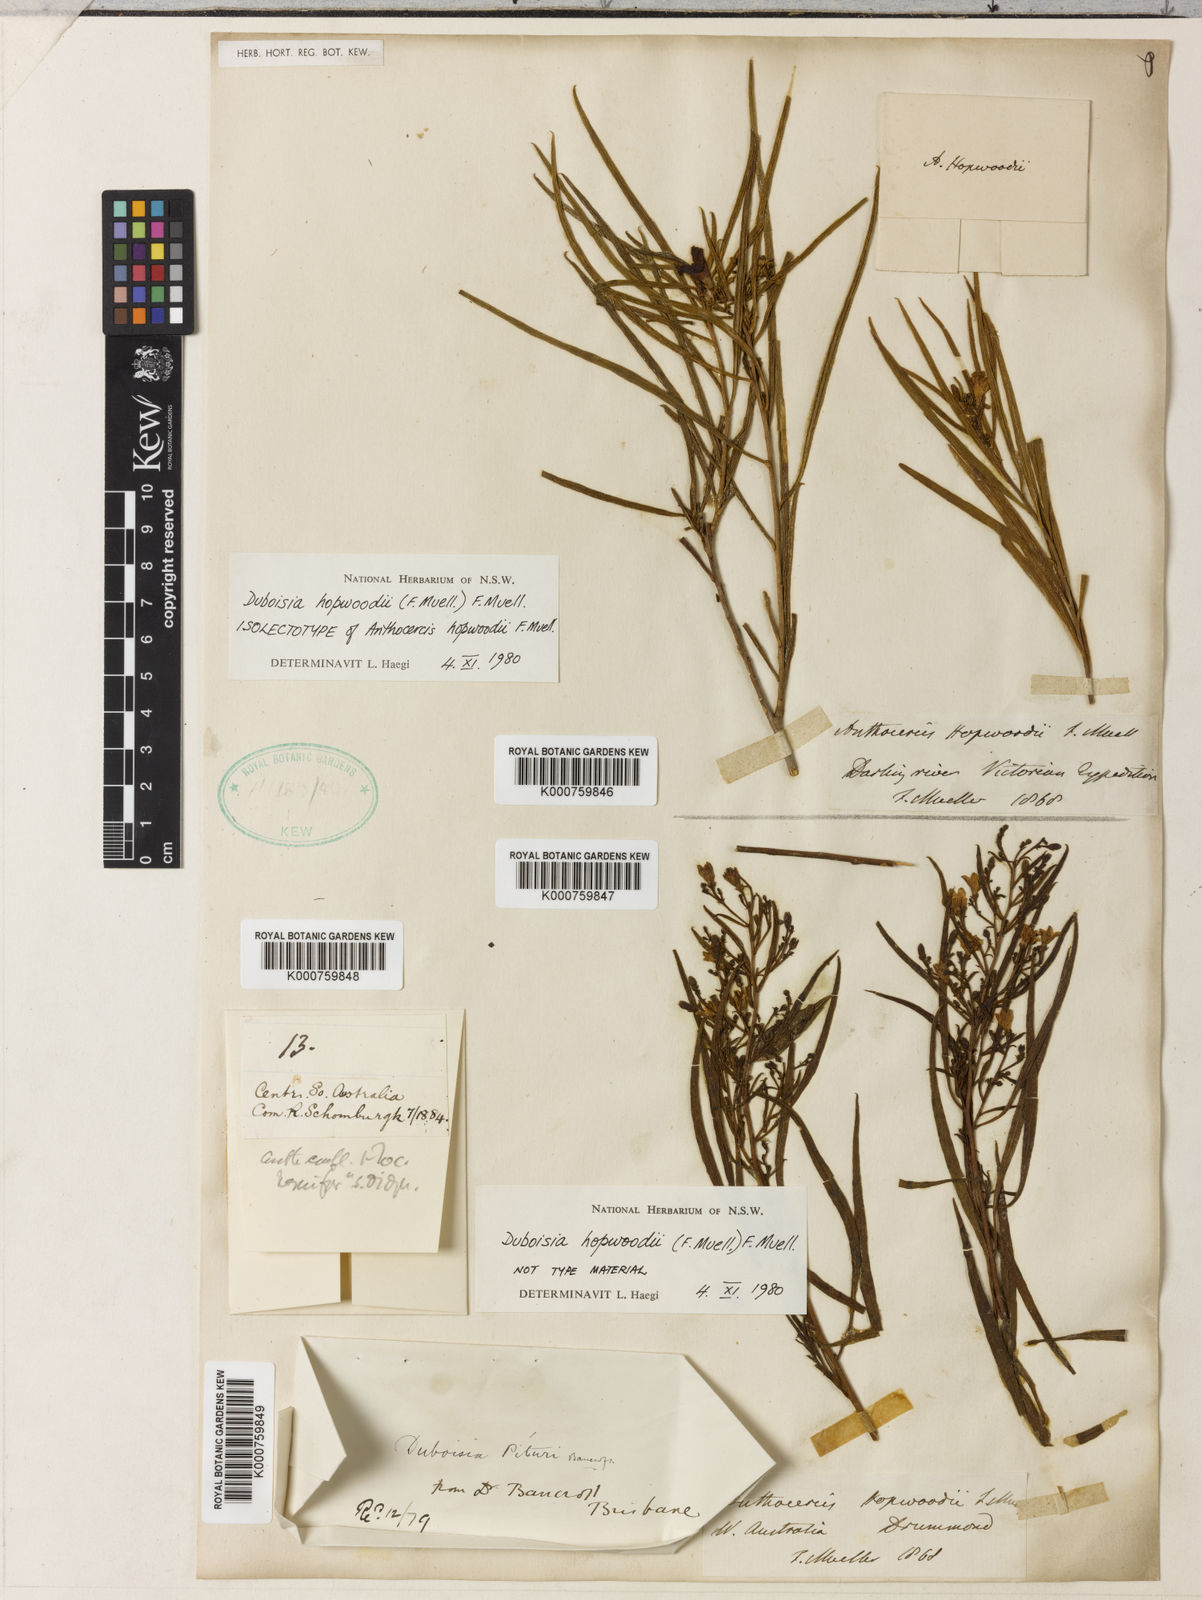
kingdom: Plantae
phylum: Tracheophyta
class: Magnoliopsida
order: Solanales
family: Solanaceae
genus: Duboisia
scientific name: Duboisia hopwoodii
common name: Pituri
